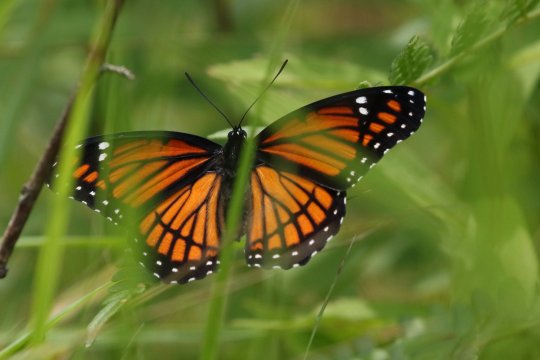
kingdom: Animalia
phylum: Arthropoda
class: Insecta
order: Lepidoptera
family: Nymphalidae
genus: Limenitis
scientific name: Limenitis archippus
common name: Viceroy
